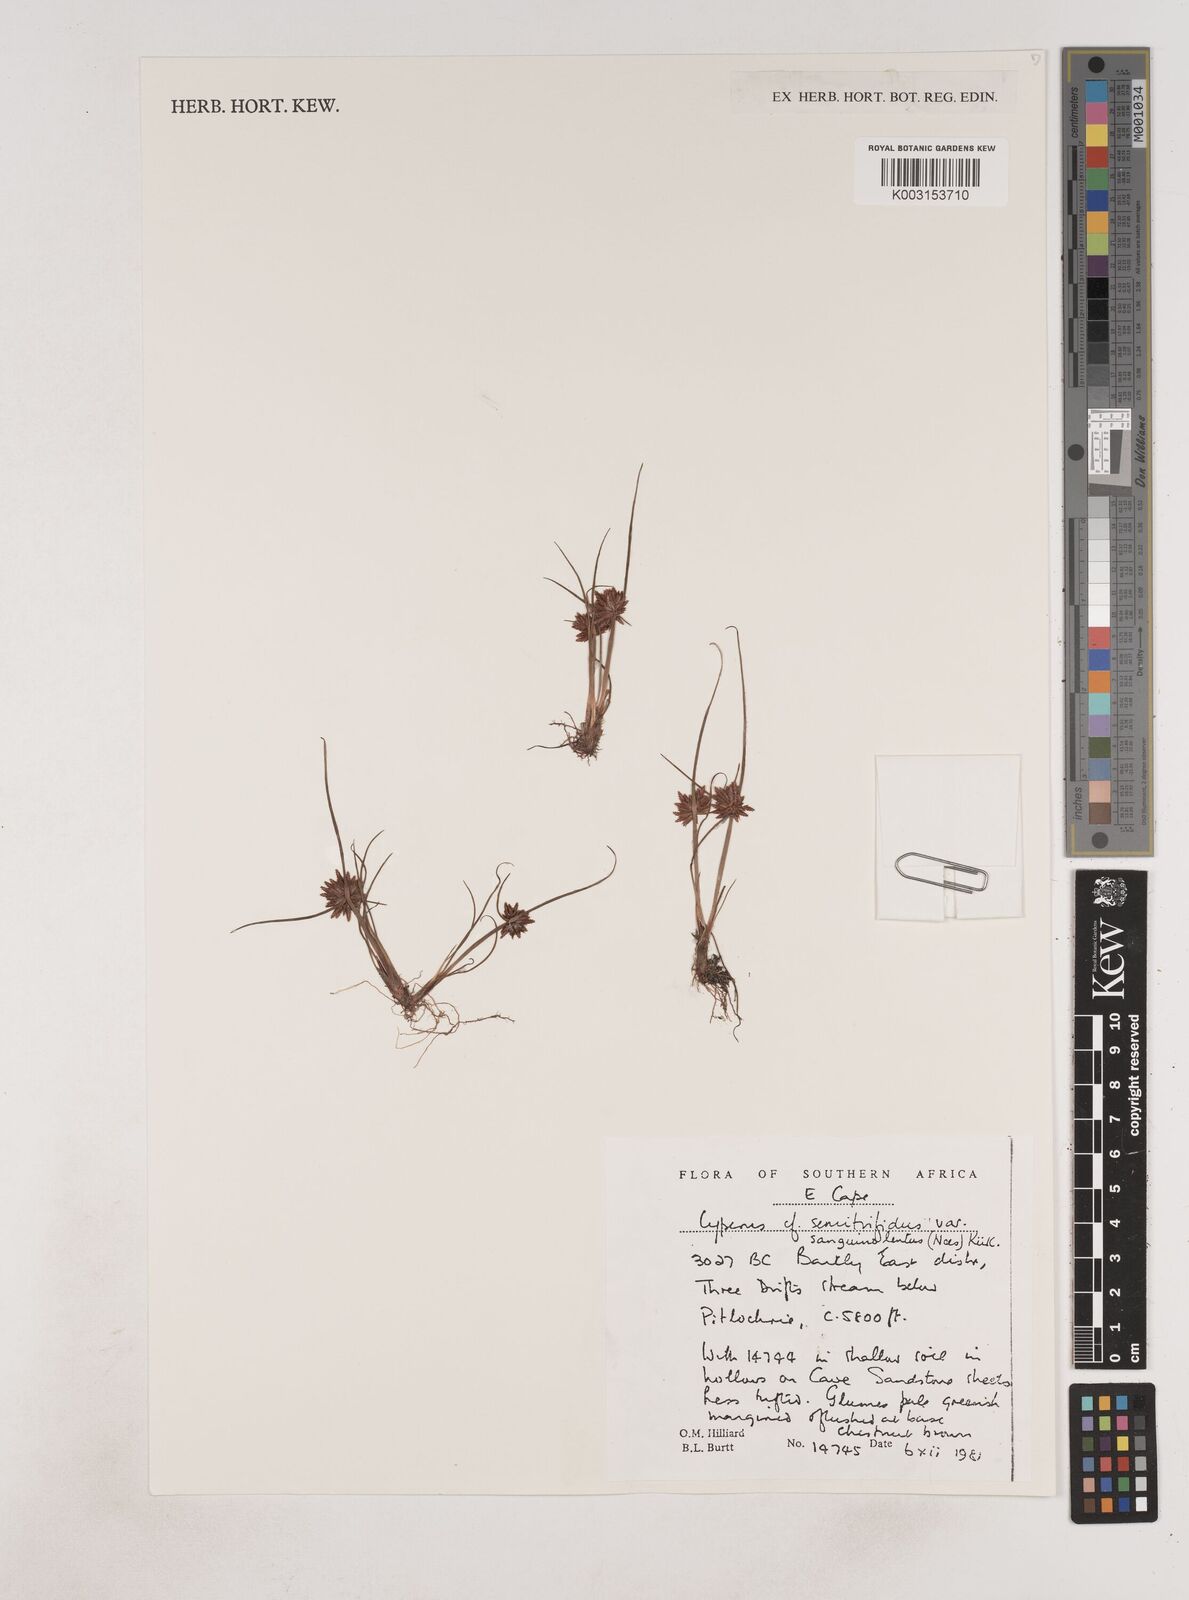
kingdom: Plantae
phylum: Tracheophyta
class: Liliopsida
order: Poales
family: Cyperaceae
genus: Cyperus
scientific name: Cyperus semitrifidus
